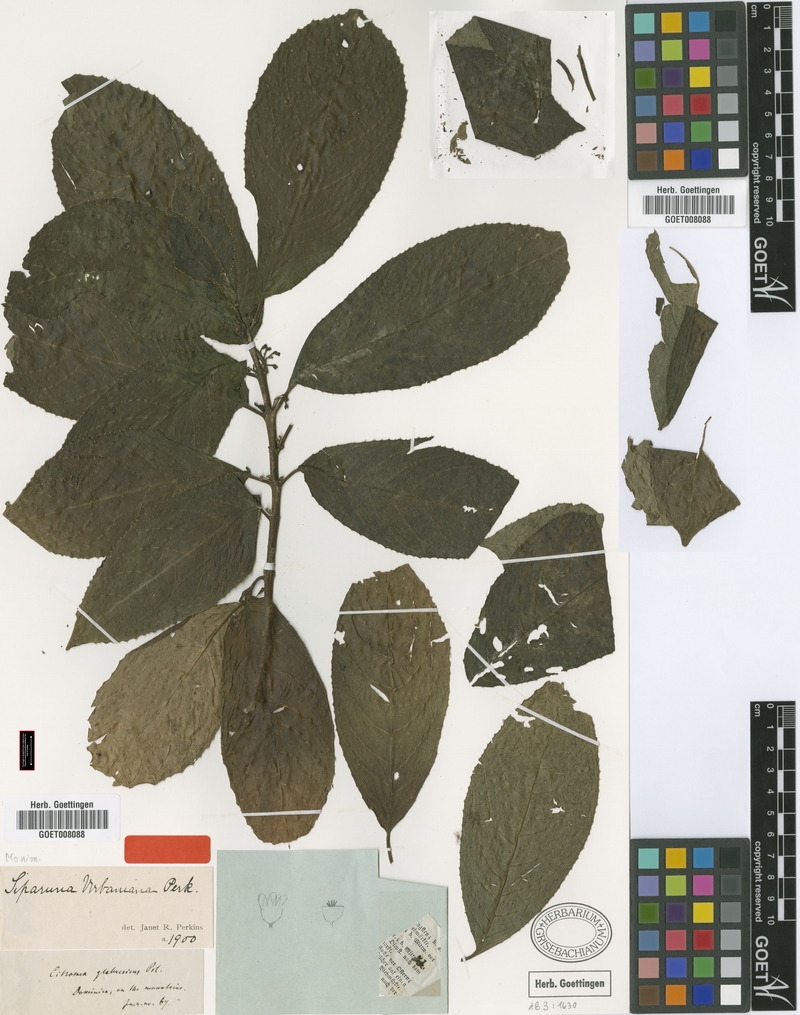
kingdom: Plantae
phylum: Tracheophyta
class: Magnoliopsida
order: Laurales
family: Siparunaceae
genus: Siparuna
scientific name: Siparuna glabrescens
